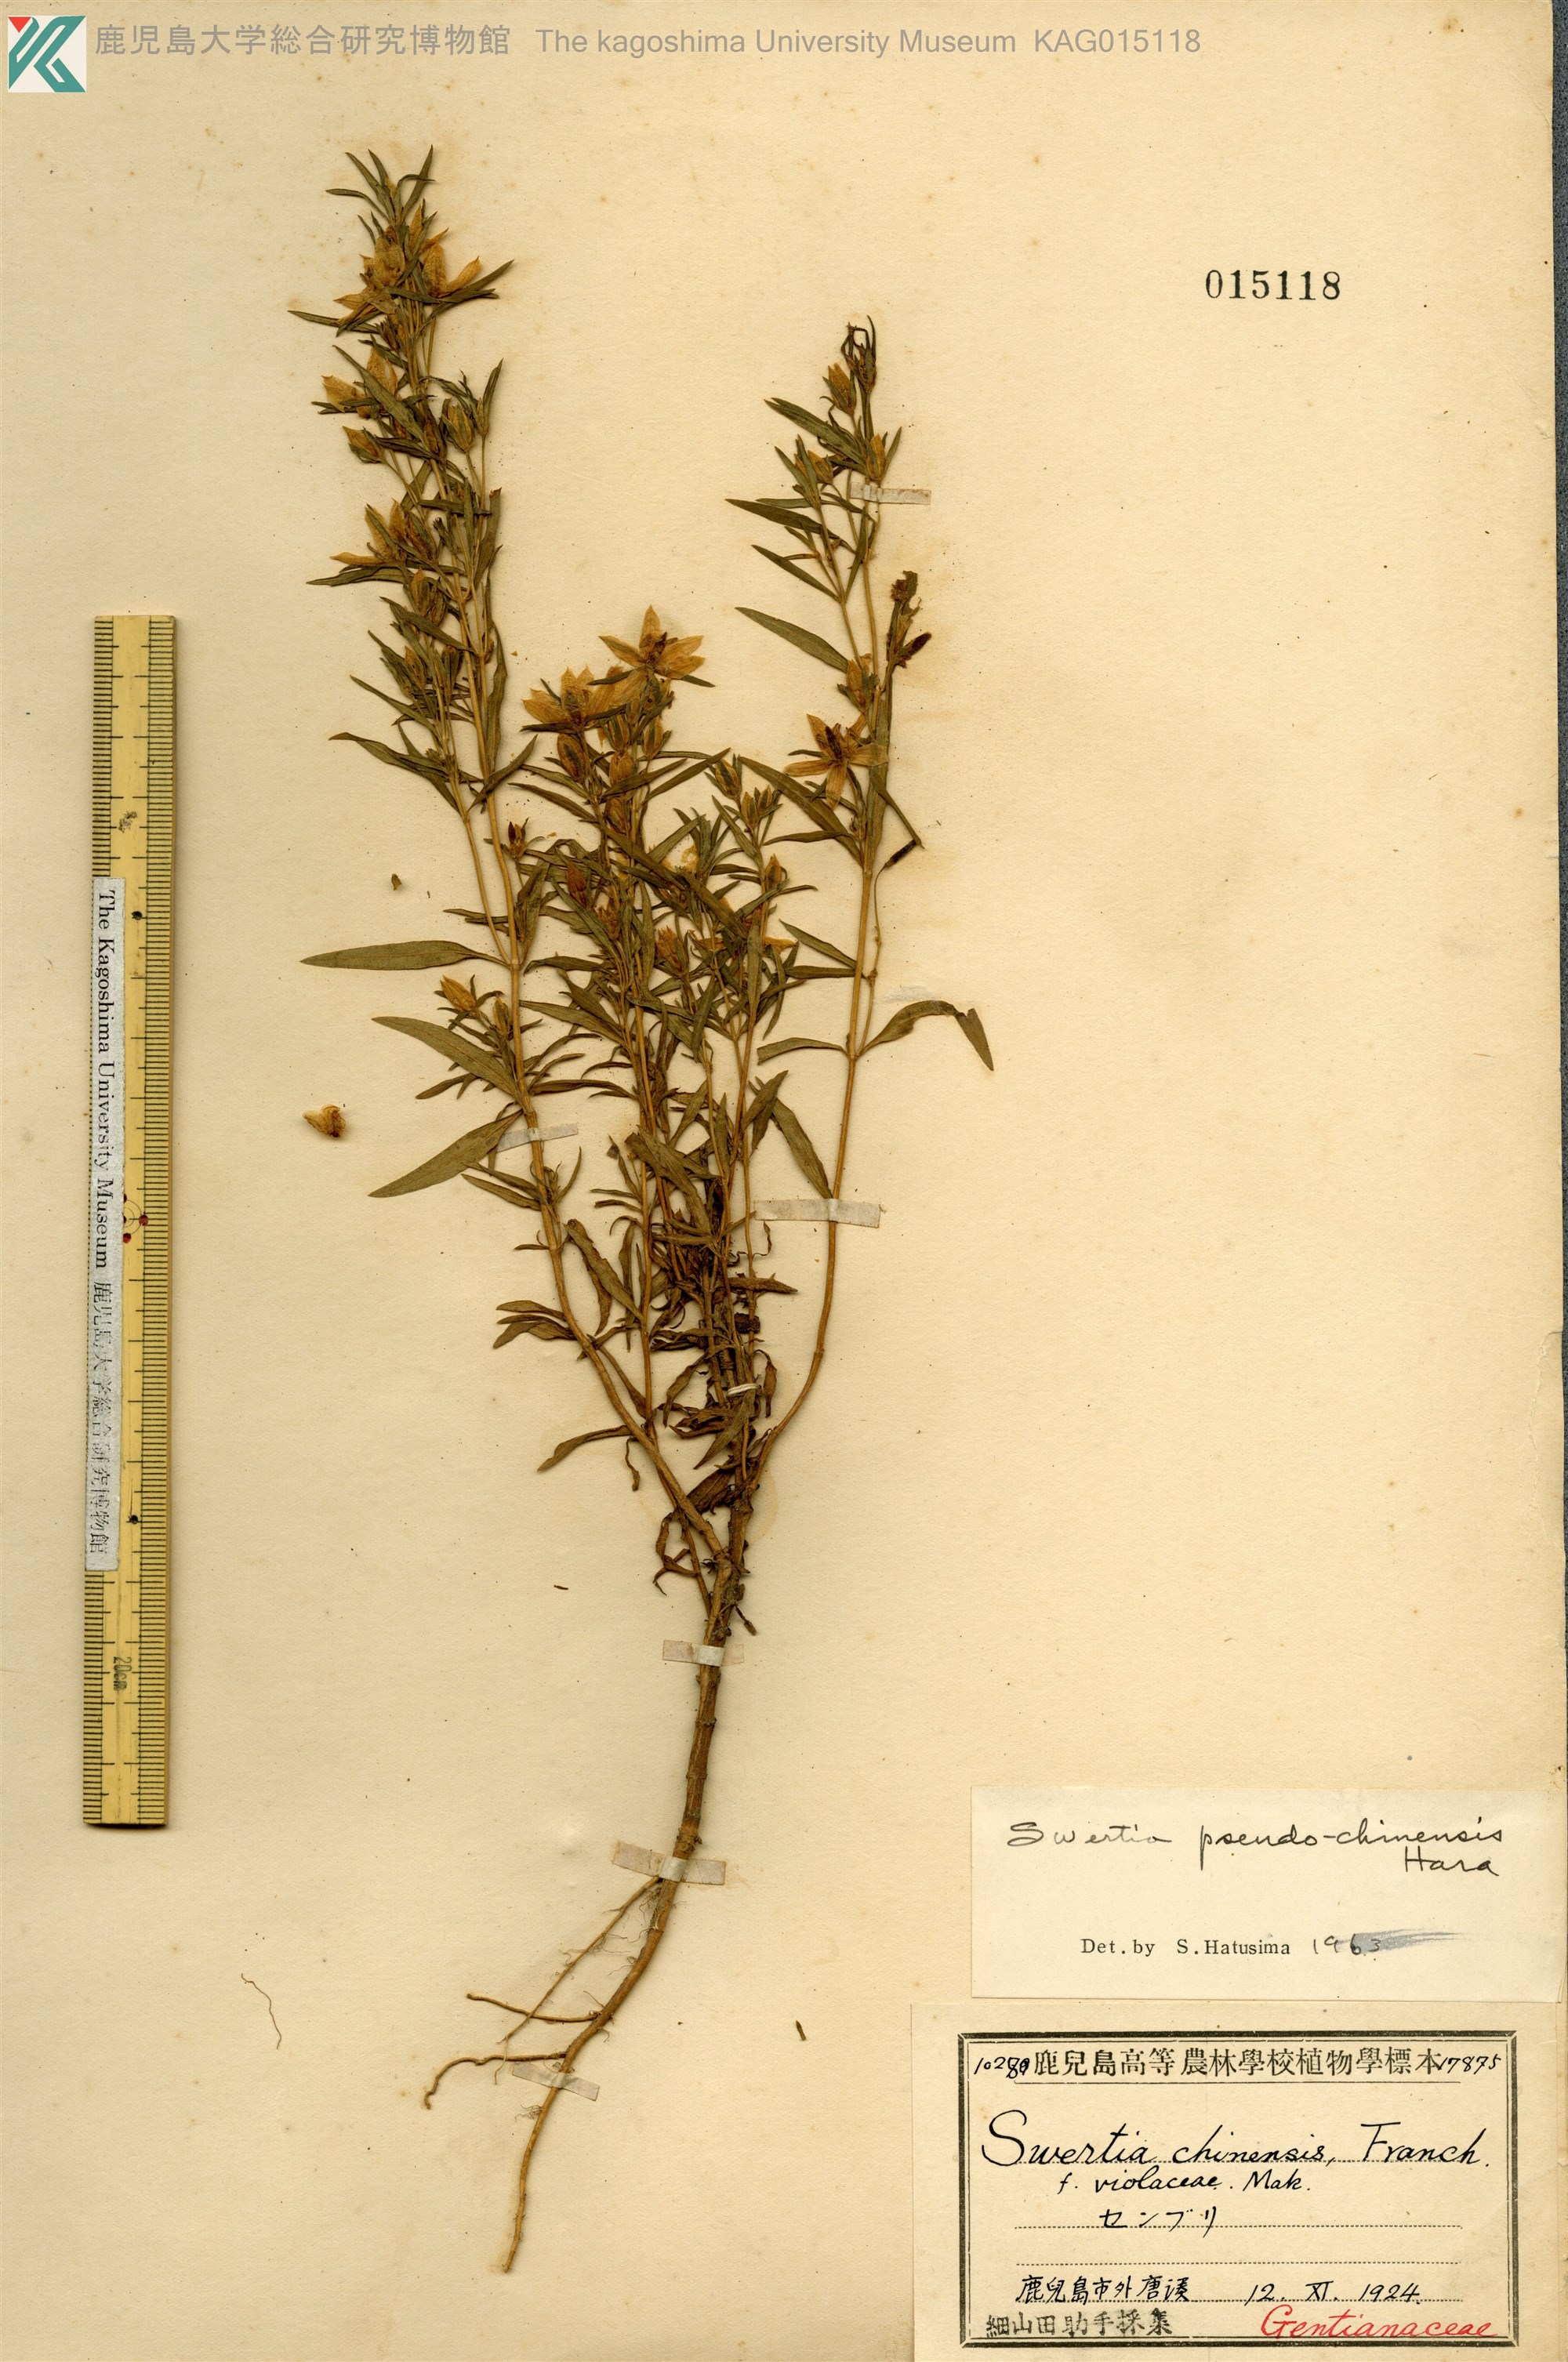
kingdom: Plantae
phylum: Tracheophyta
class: Magnoliopsida
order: Gentianales
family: Gentianaceae
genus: Swertia
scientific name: Swertia pseudochinensis
